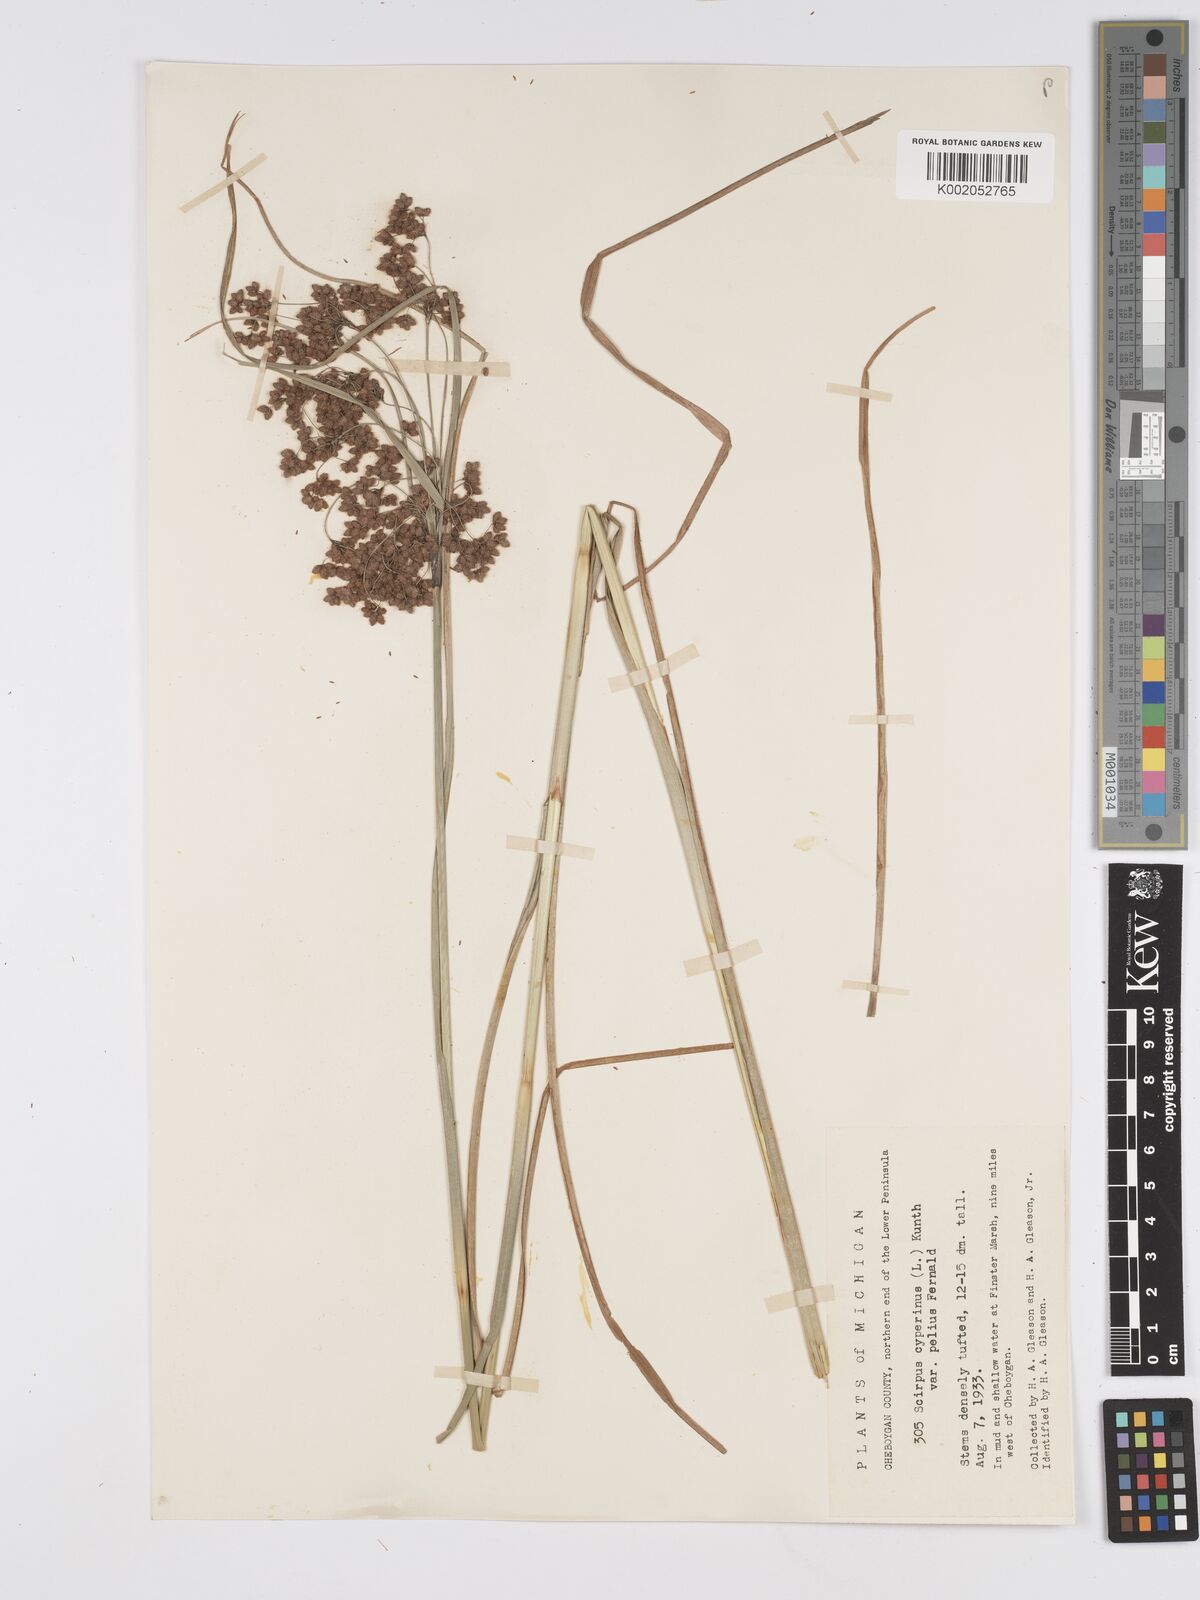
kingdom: Plantae
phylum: Tracheophyta
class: Liliopsida
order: Poales
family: Cyperaceae
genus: Scirpus
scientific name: Scirpus cyperinus
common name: Black-sheathed bulrush
